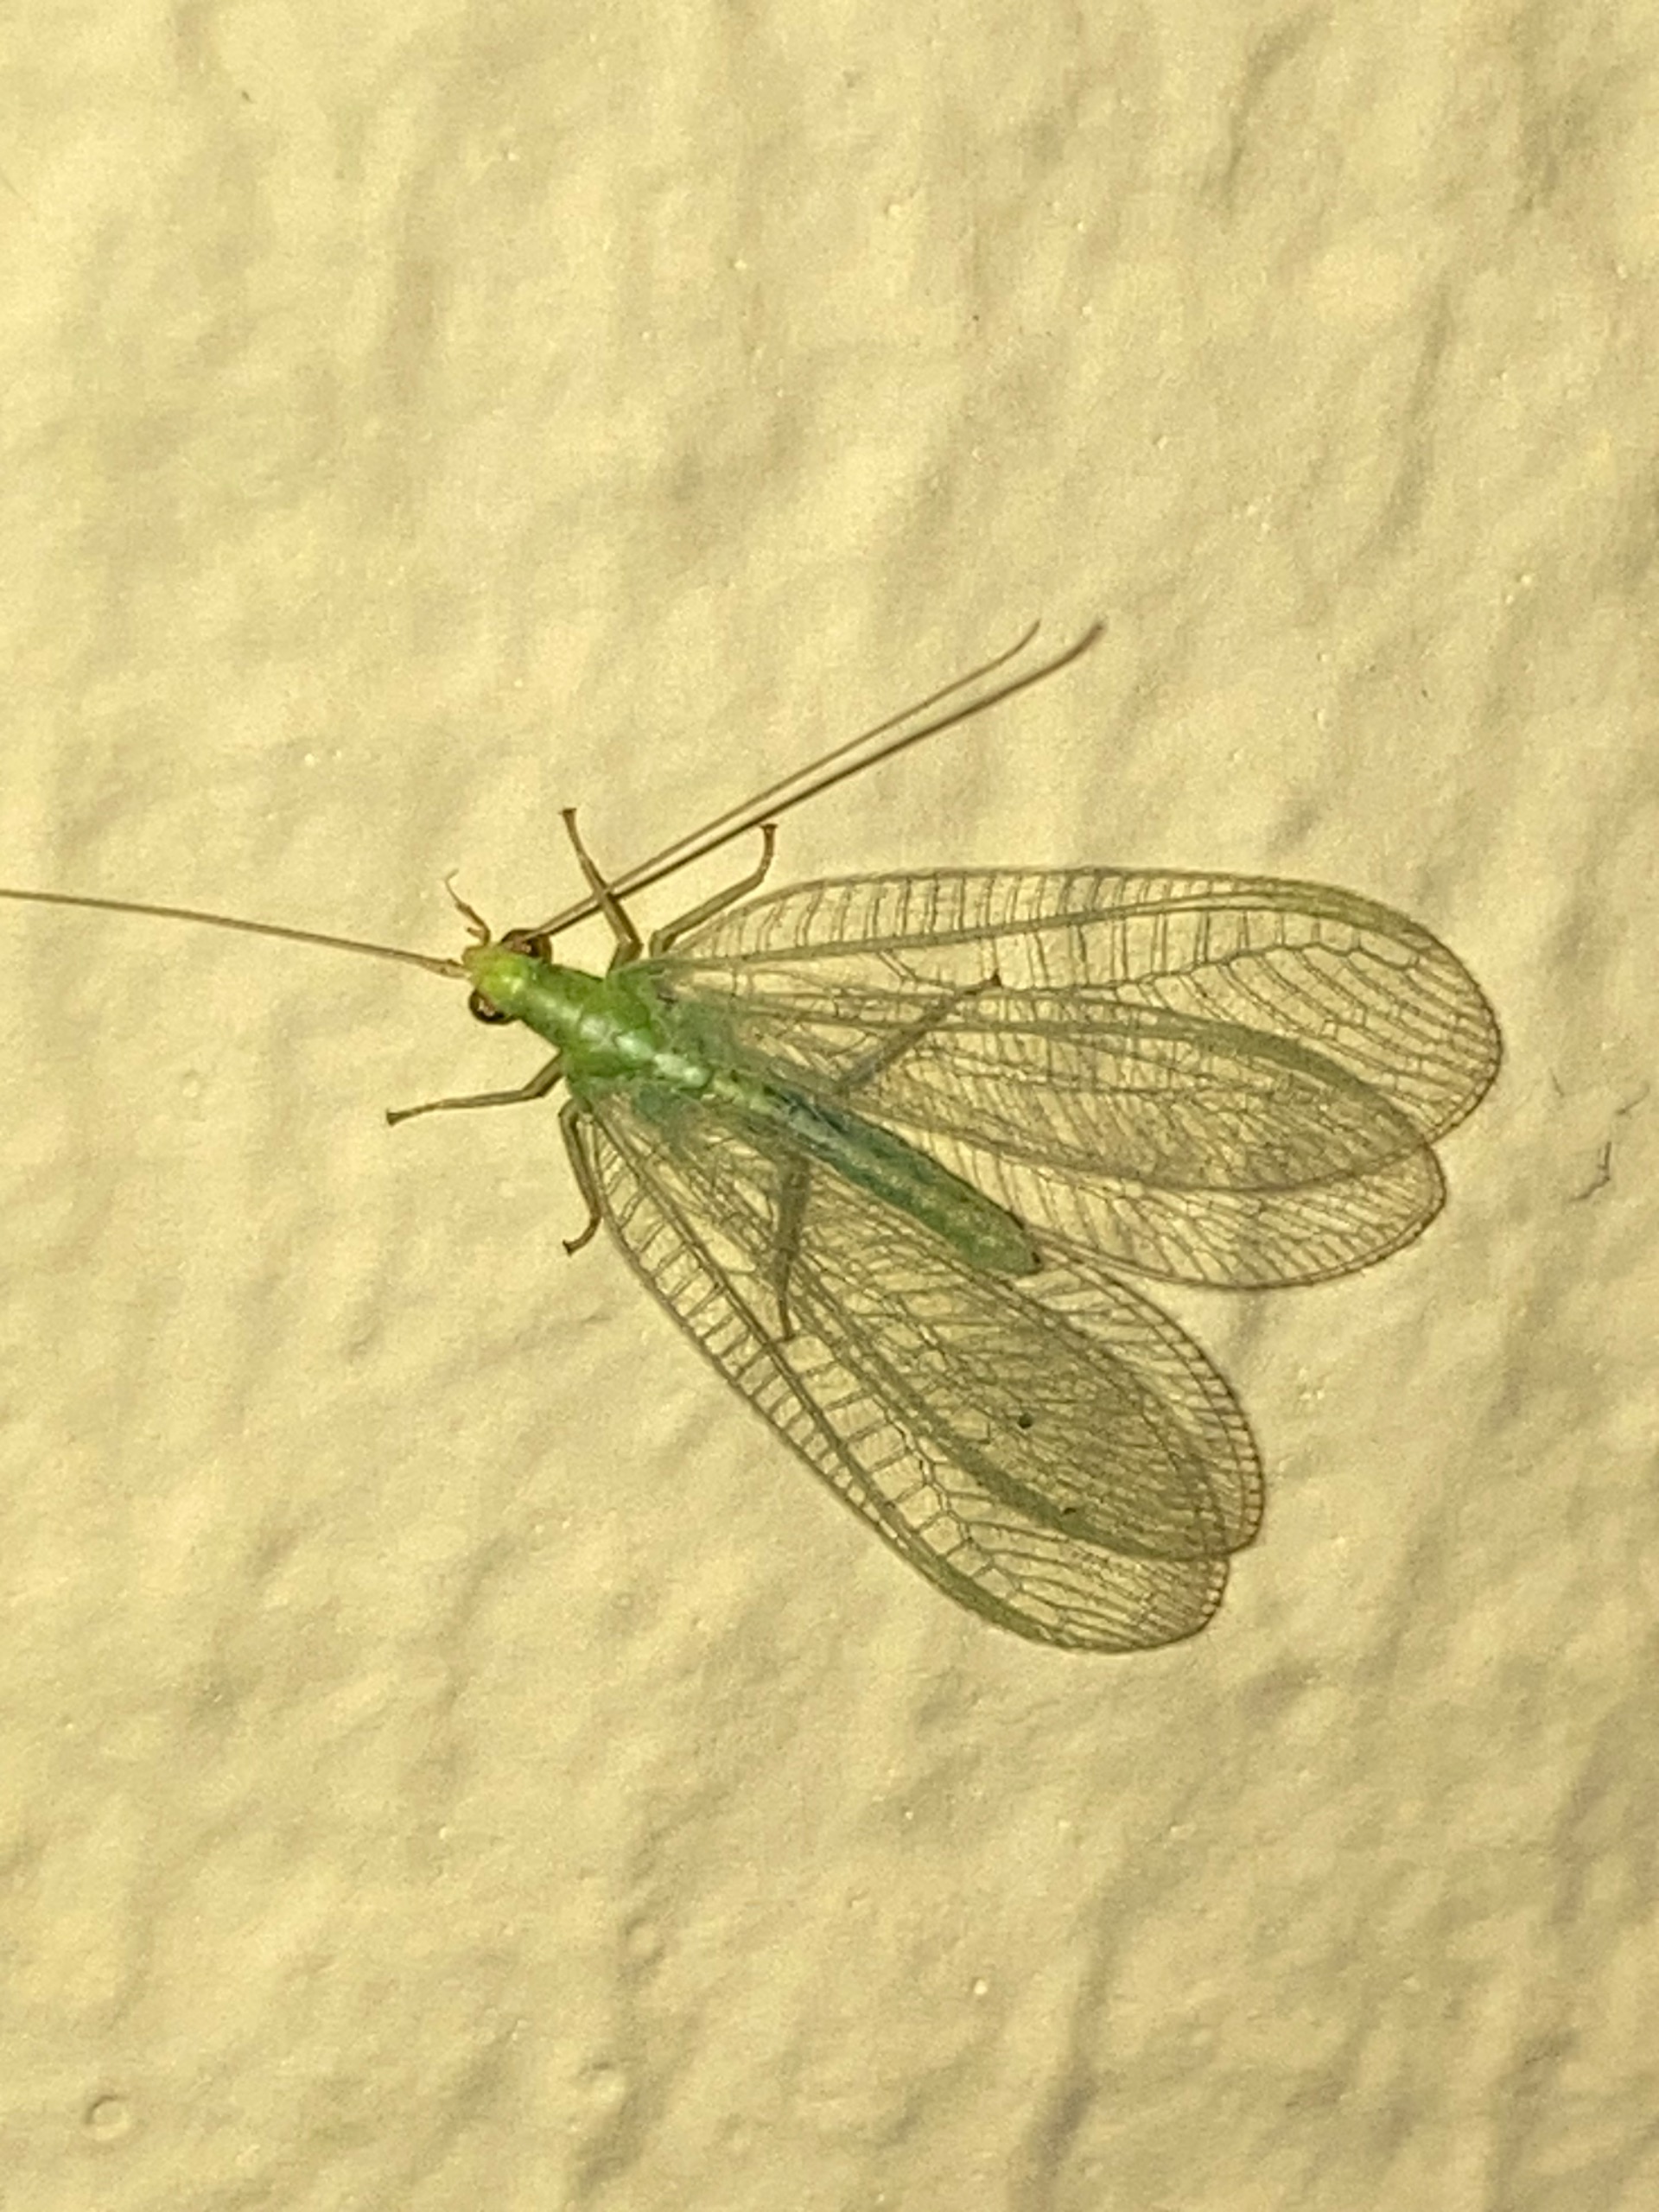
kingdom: Animalia
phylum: Arthropoda
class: Insecta
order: Neuroptera
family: Chrysopidae
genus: Chrysoperla
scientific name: Chrysoperla carnea
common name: Almindelig guldøje
